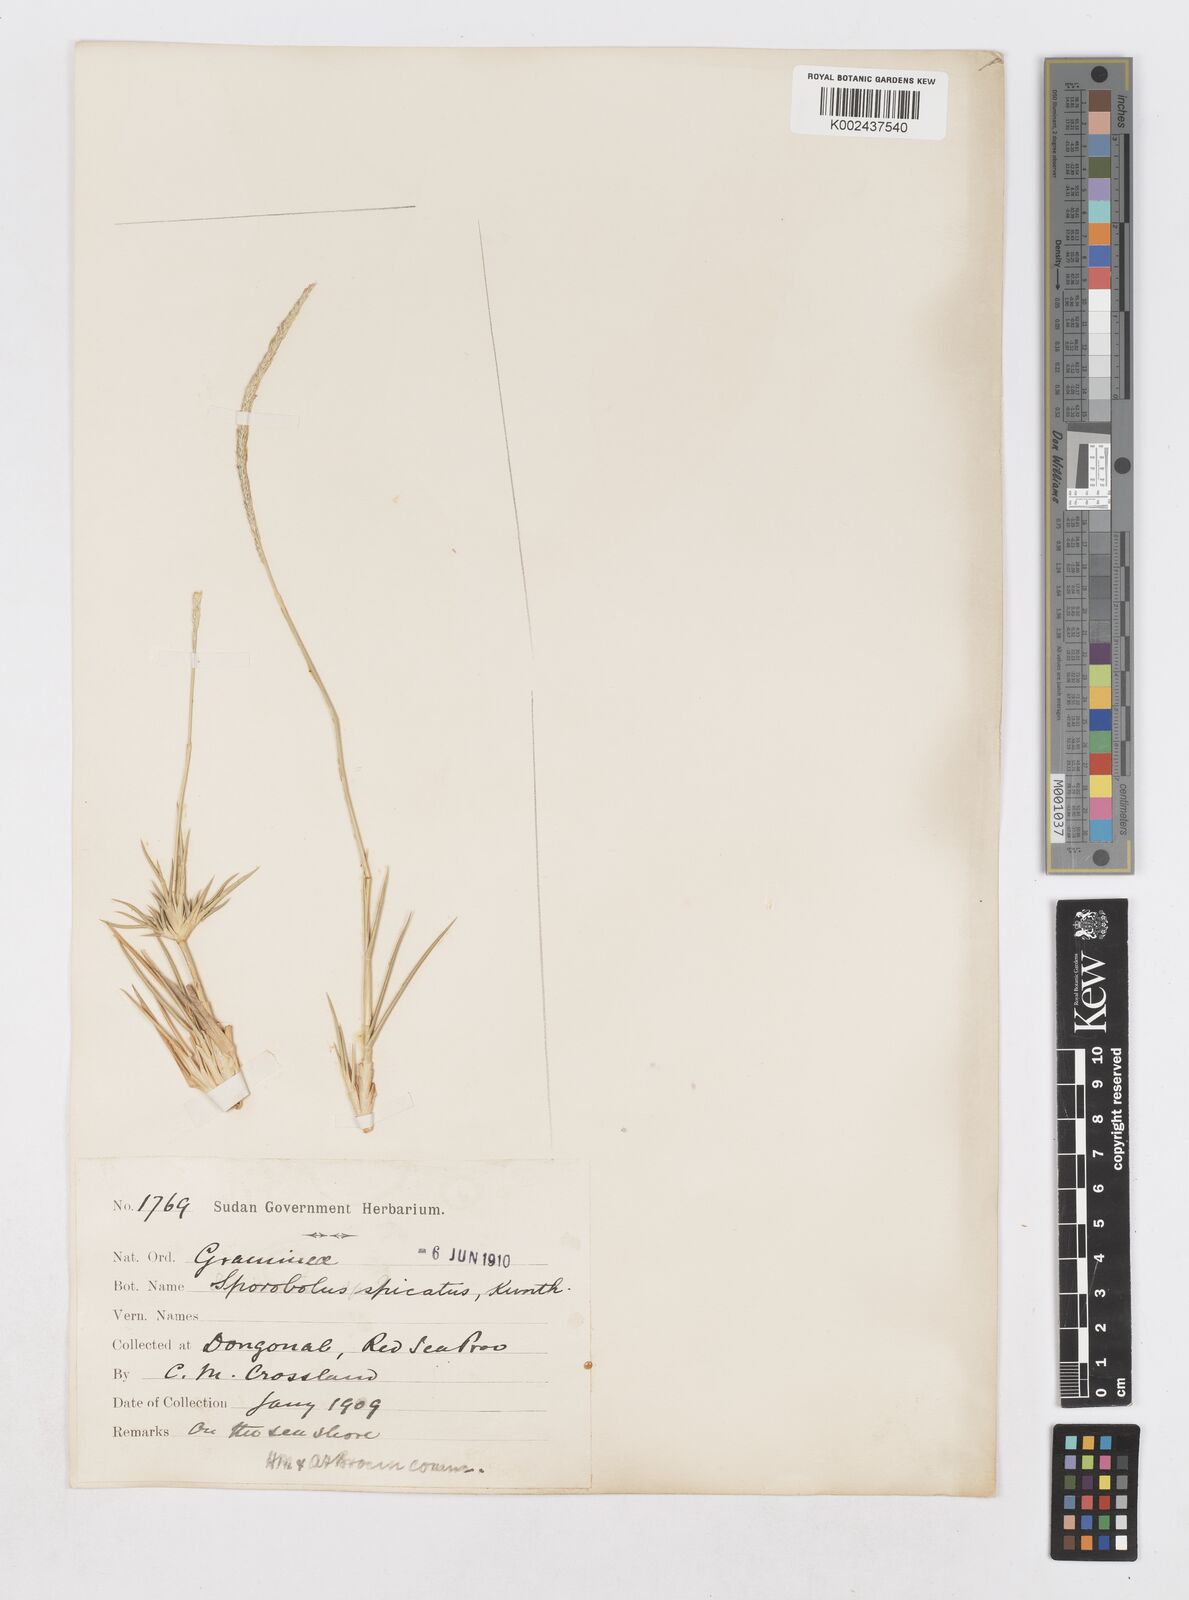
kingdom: Plantae
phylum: Tracheophyta
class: Liliopsida
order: Poales
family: Poaceae
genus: Sporobolus
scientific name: Sporobolus spicatus
